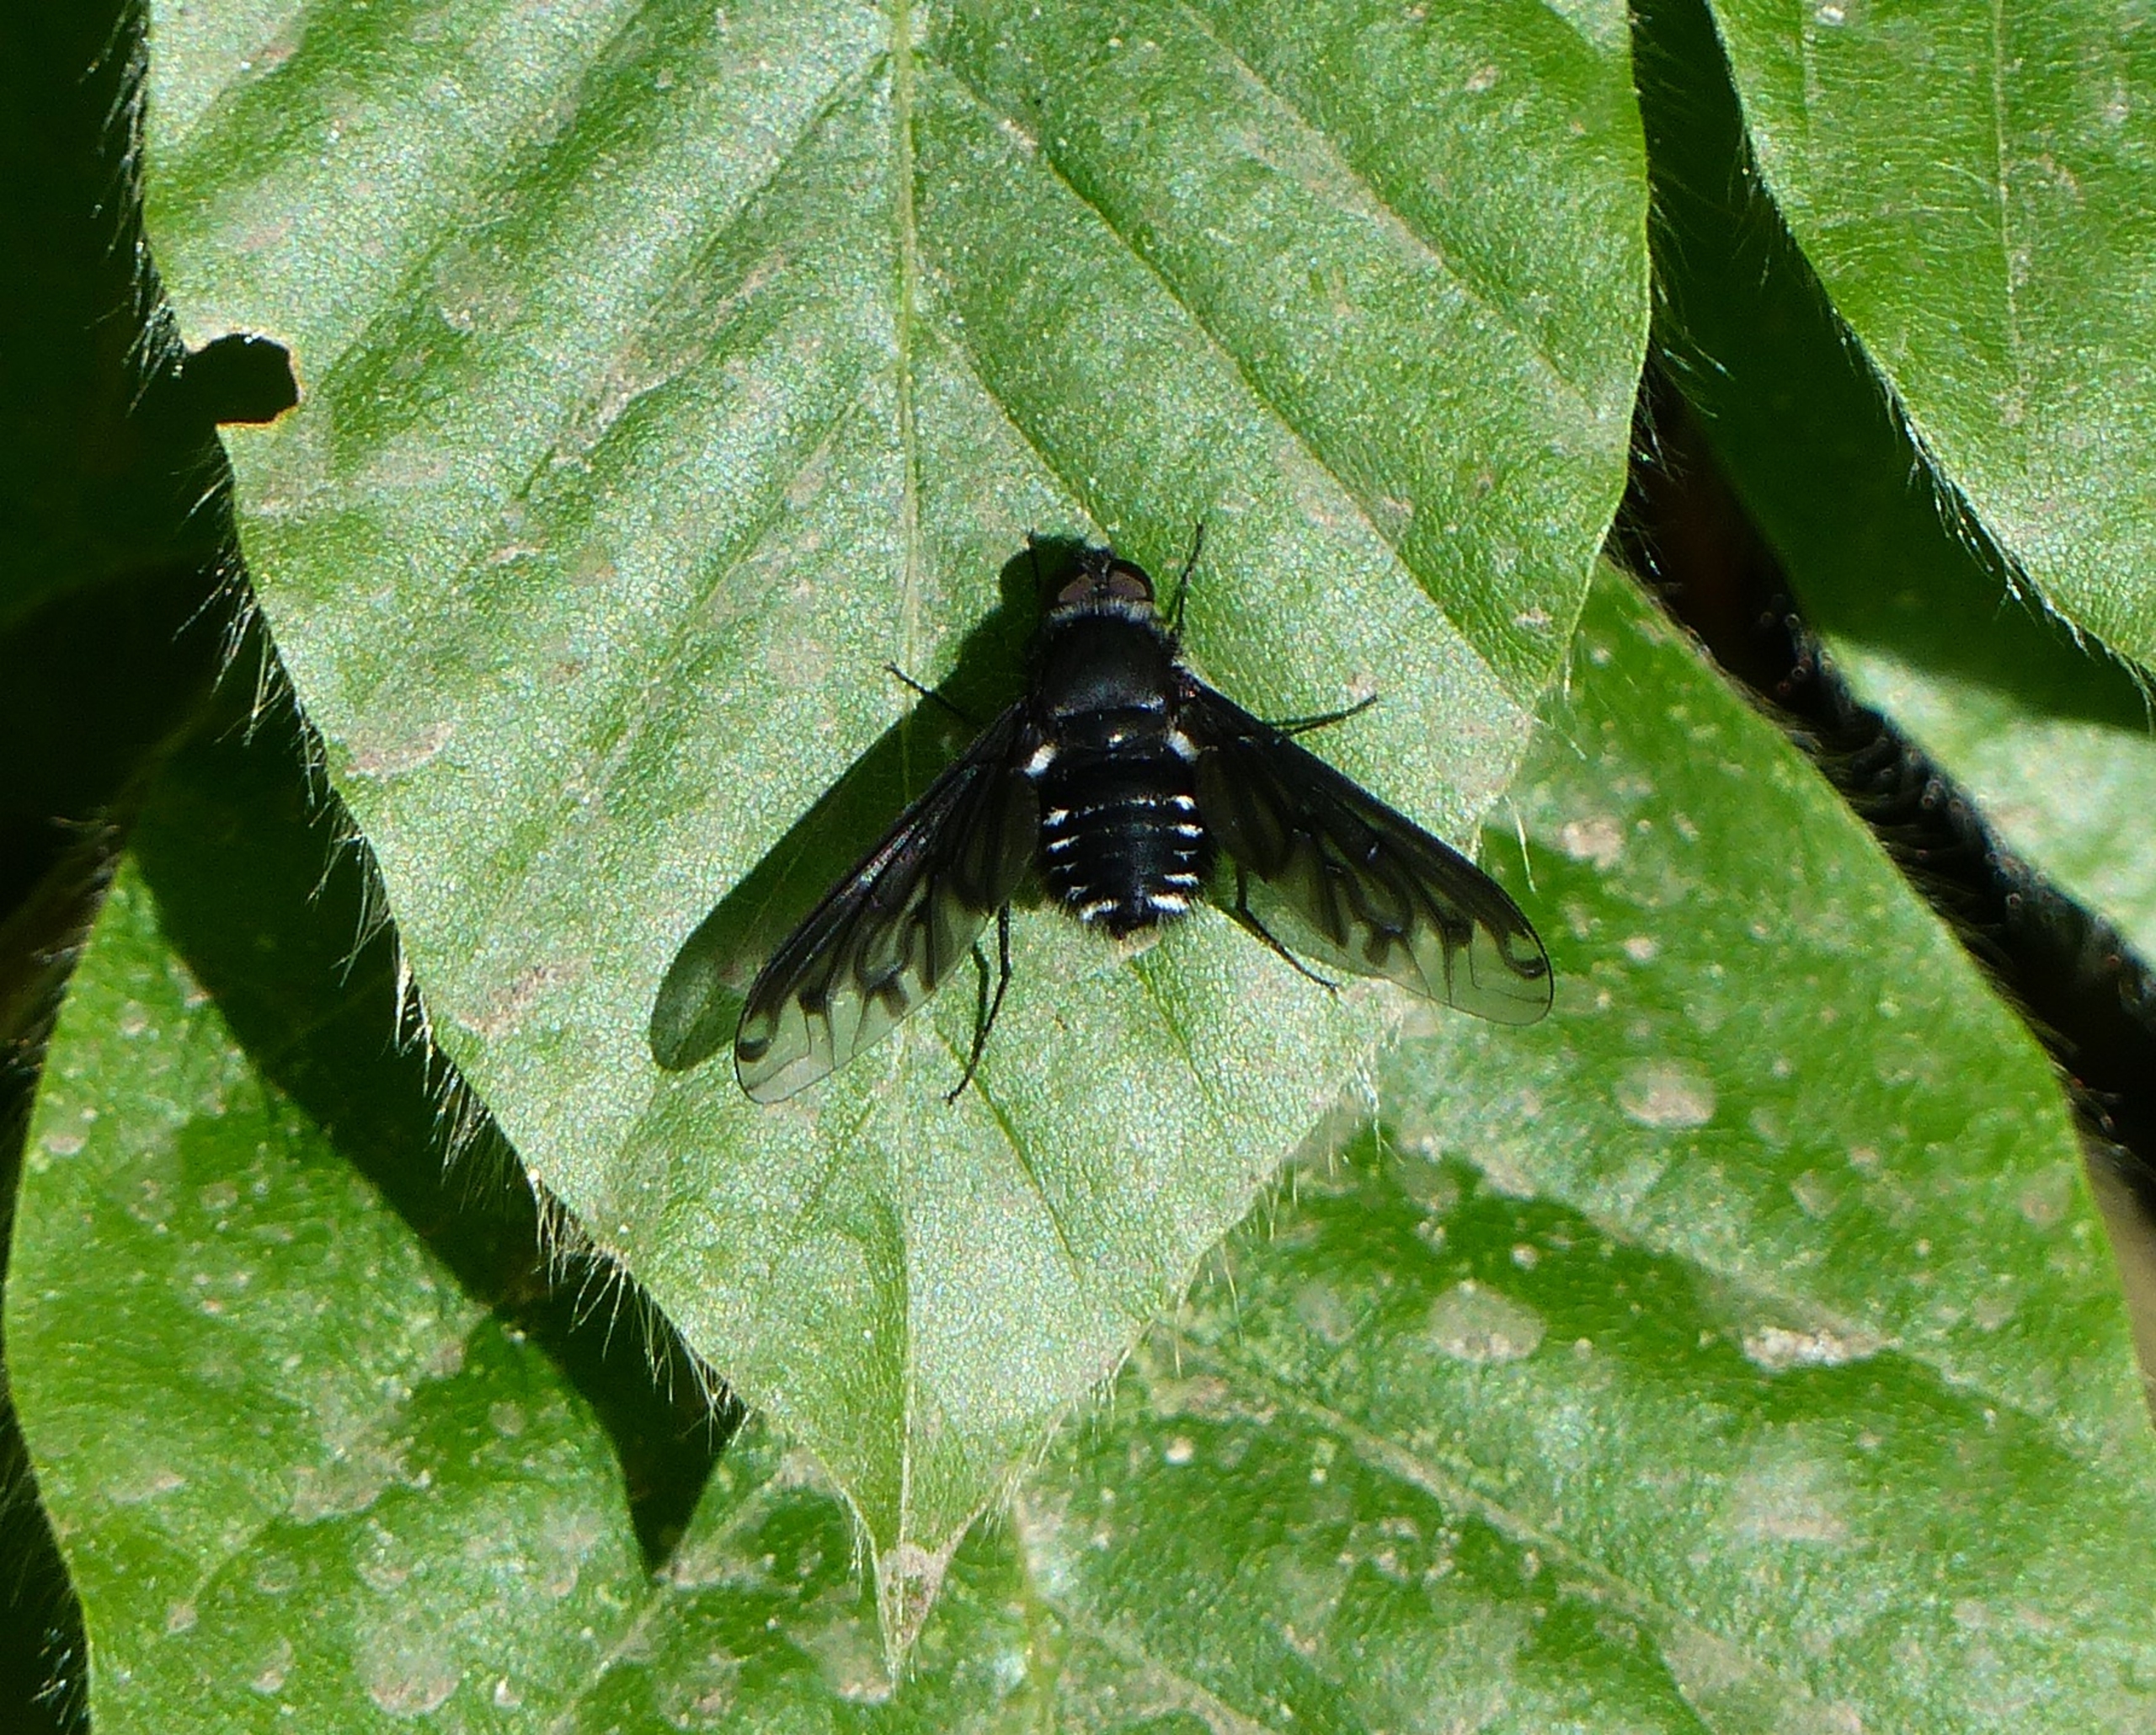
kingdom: Animalia
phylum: Arthropoda
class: Insecta
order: Diptera
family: Bombyliidae
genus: Anthrax
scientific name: Anthrax anthrax
